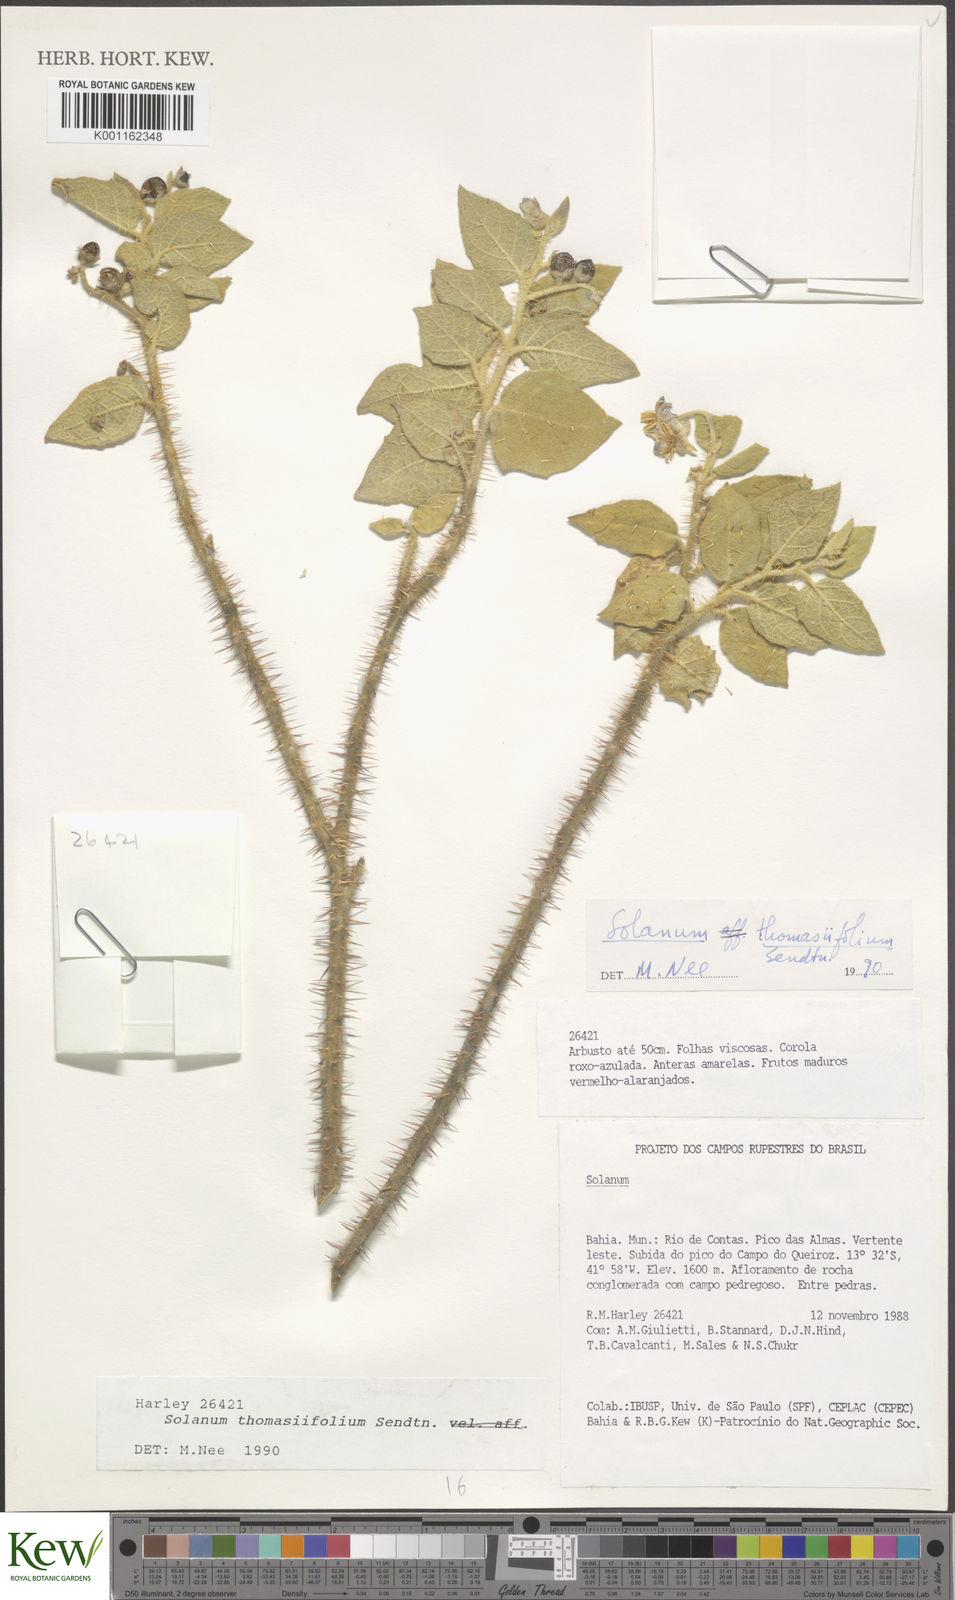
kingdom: Plantae
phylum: Tracheophyta
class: Magnoliopsida
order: Solanales
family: Solanaceae
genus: Solanum
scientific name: Solanum thomasiifolium
